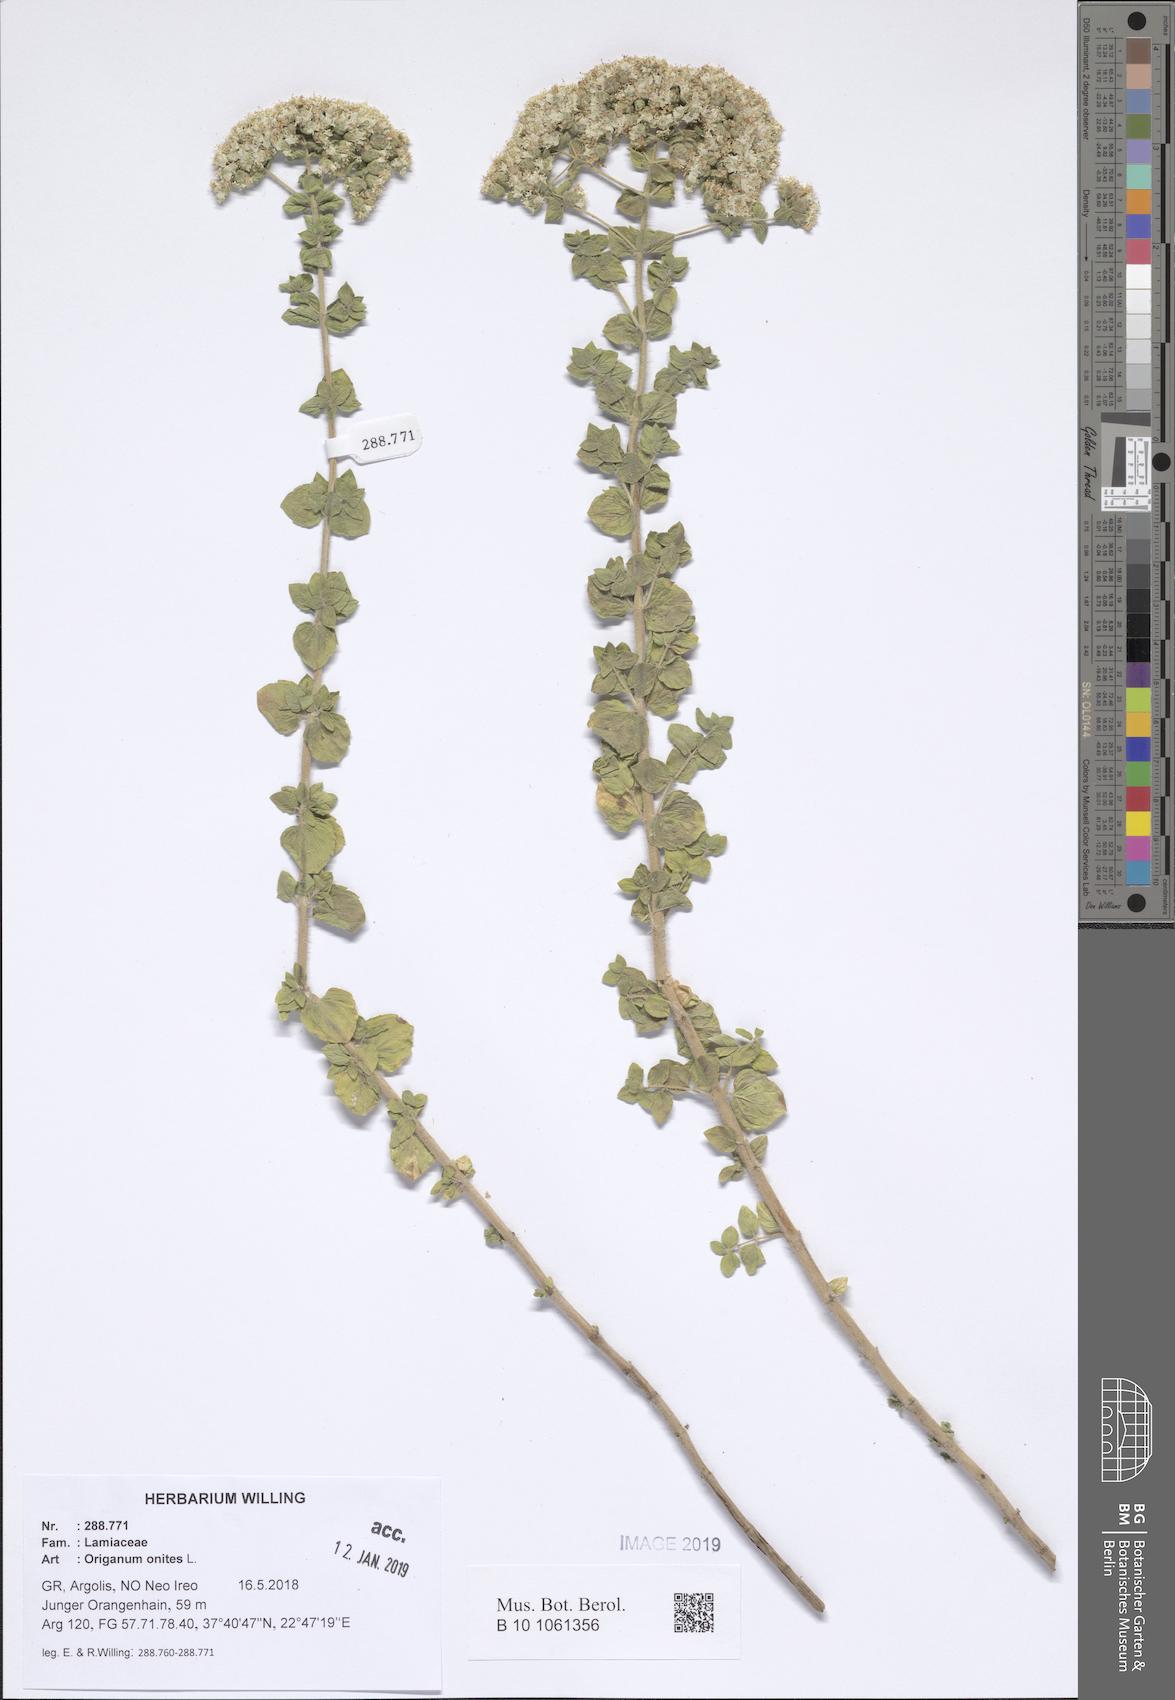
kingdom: Plantae
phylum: Tracheophyta
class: Magnoliopsida
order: Lamiales
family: Lamiaceae
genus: Origanum
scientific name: Origanum onites
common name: Turkish oregano
